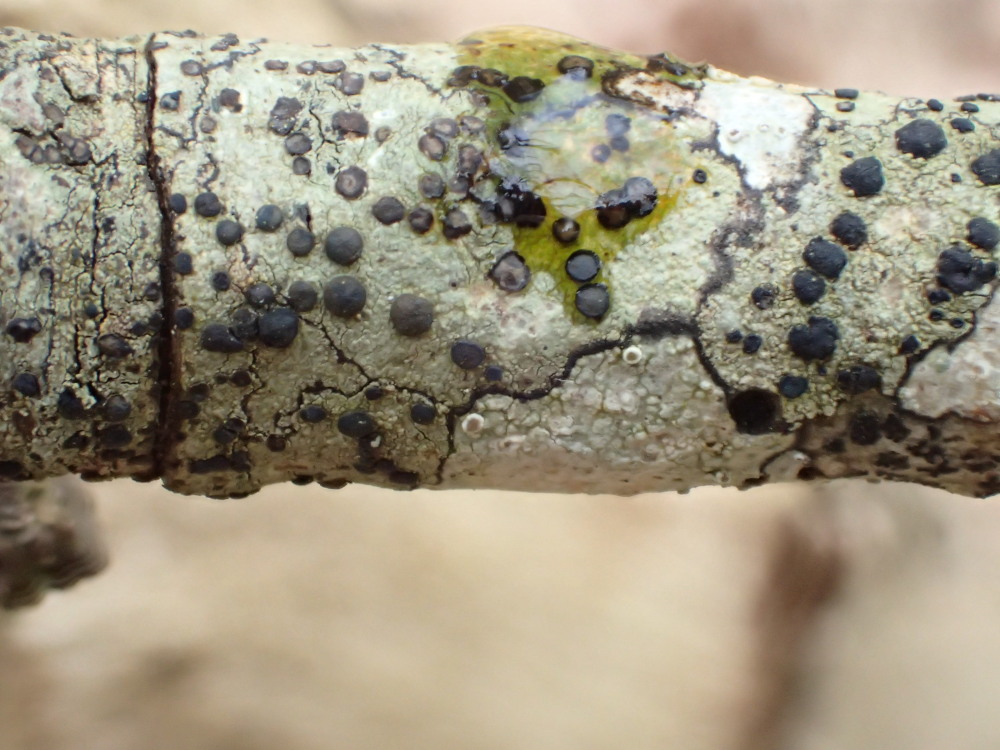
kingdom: Fungi
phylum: Ascomycota
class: Lecanoromycetes
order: Lecanorales
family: Lecanoraceae
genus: Lecidella
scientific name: Lecidella elaeochroma
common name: grågrøn skivelav
